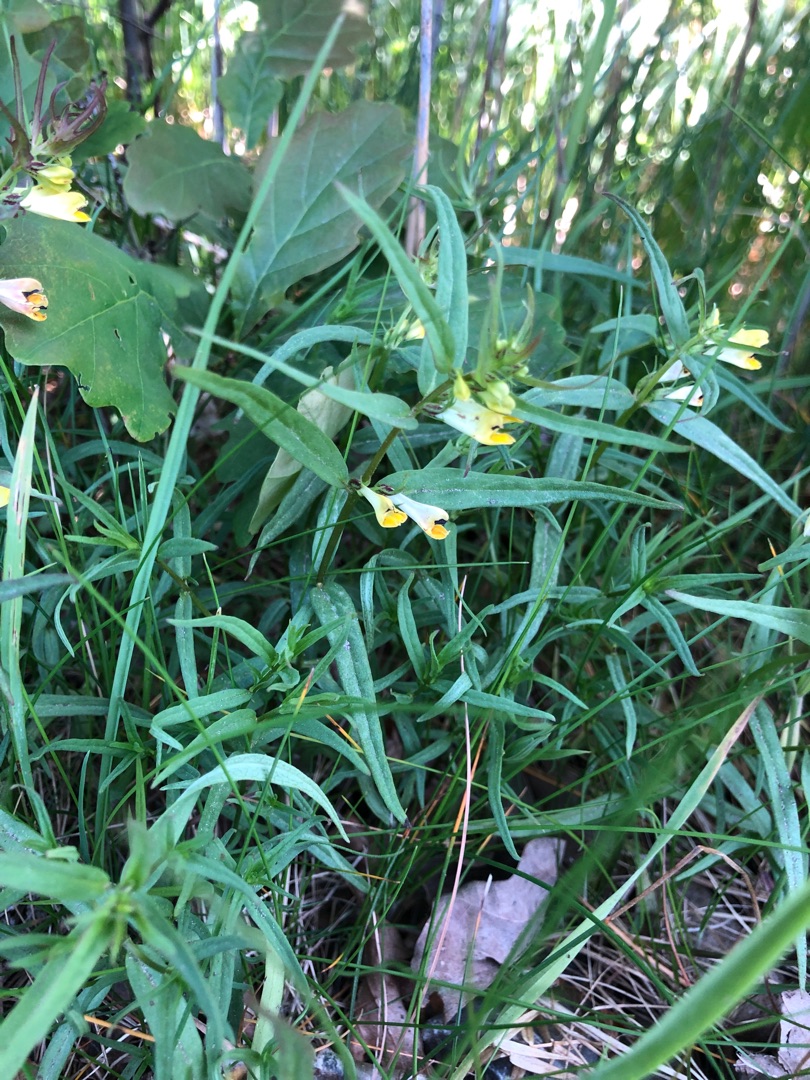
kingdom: Plantae
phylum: Tracheophyta
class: Magnoliopsida
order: Lamiales
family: Orobanchaceae
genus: Melampyrum
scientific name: Melampyrum pratense
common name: Almindelig kohvede
